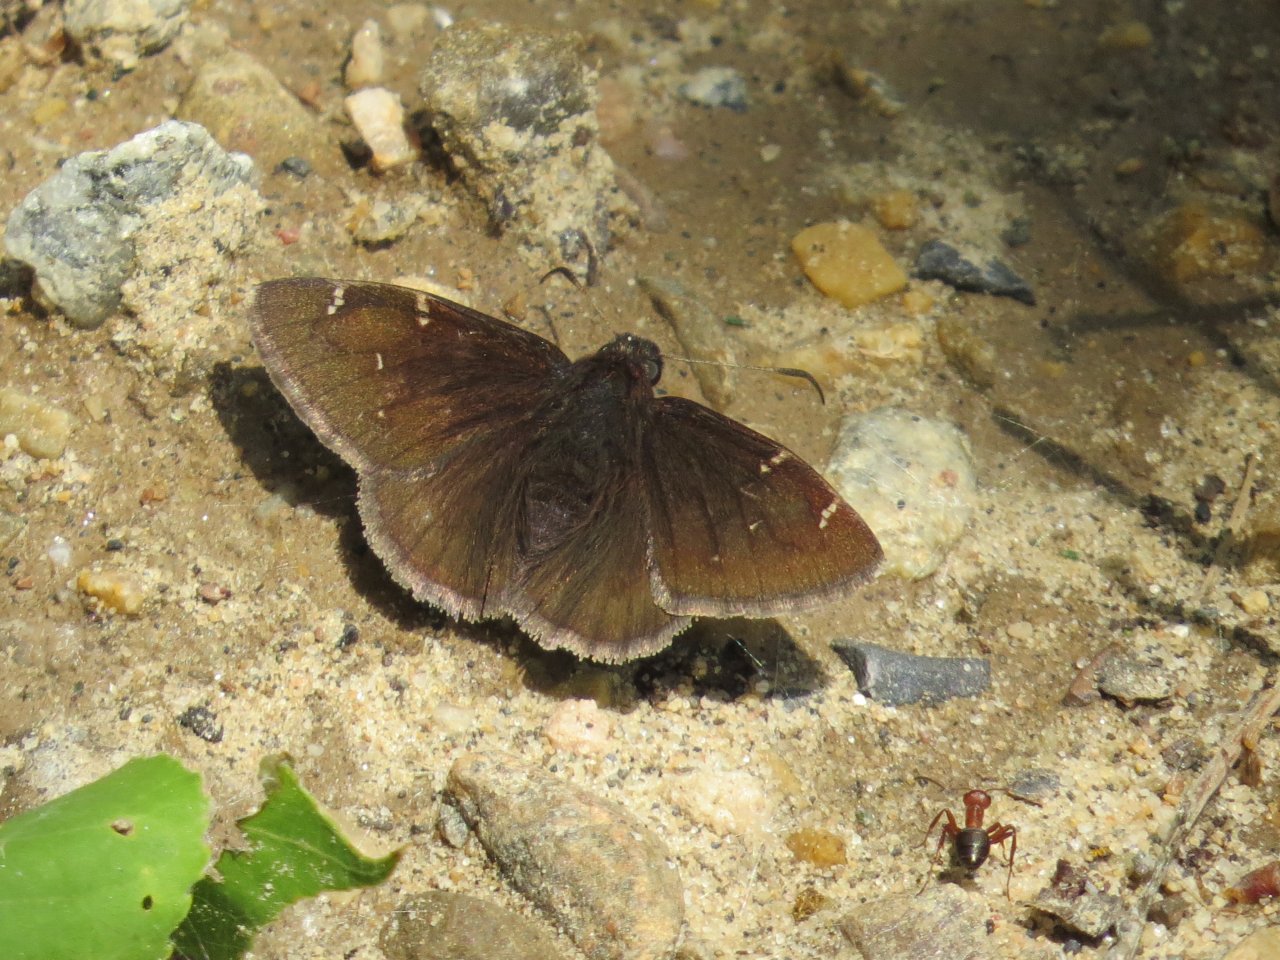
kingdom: Animalia
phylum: Arthropoda
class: Insecta
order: Lepidoptera
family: Hesperiidae
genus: Autochton
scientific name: Autochton
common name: Northern Cloudywing
